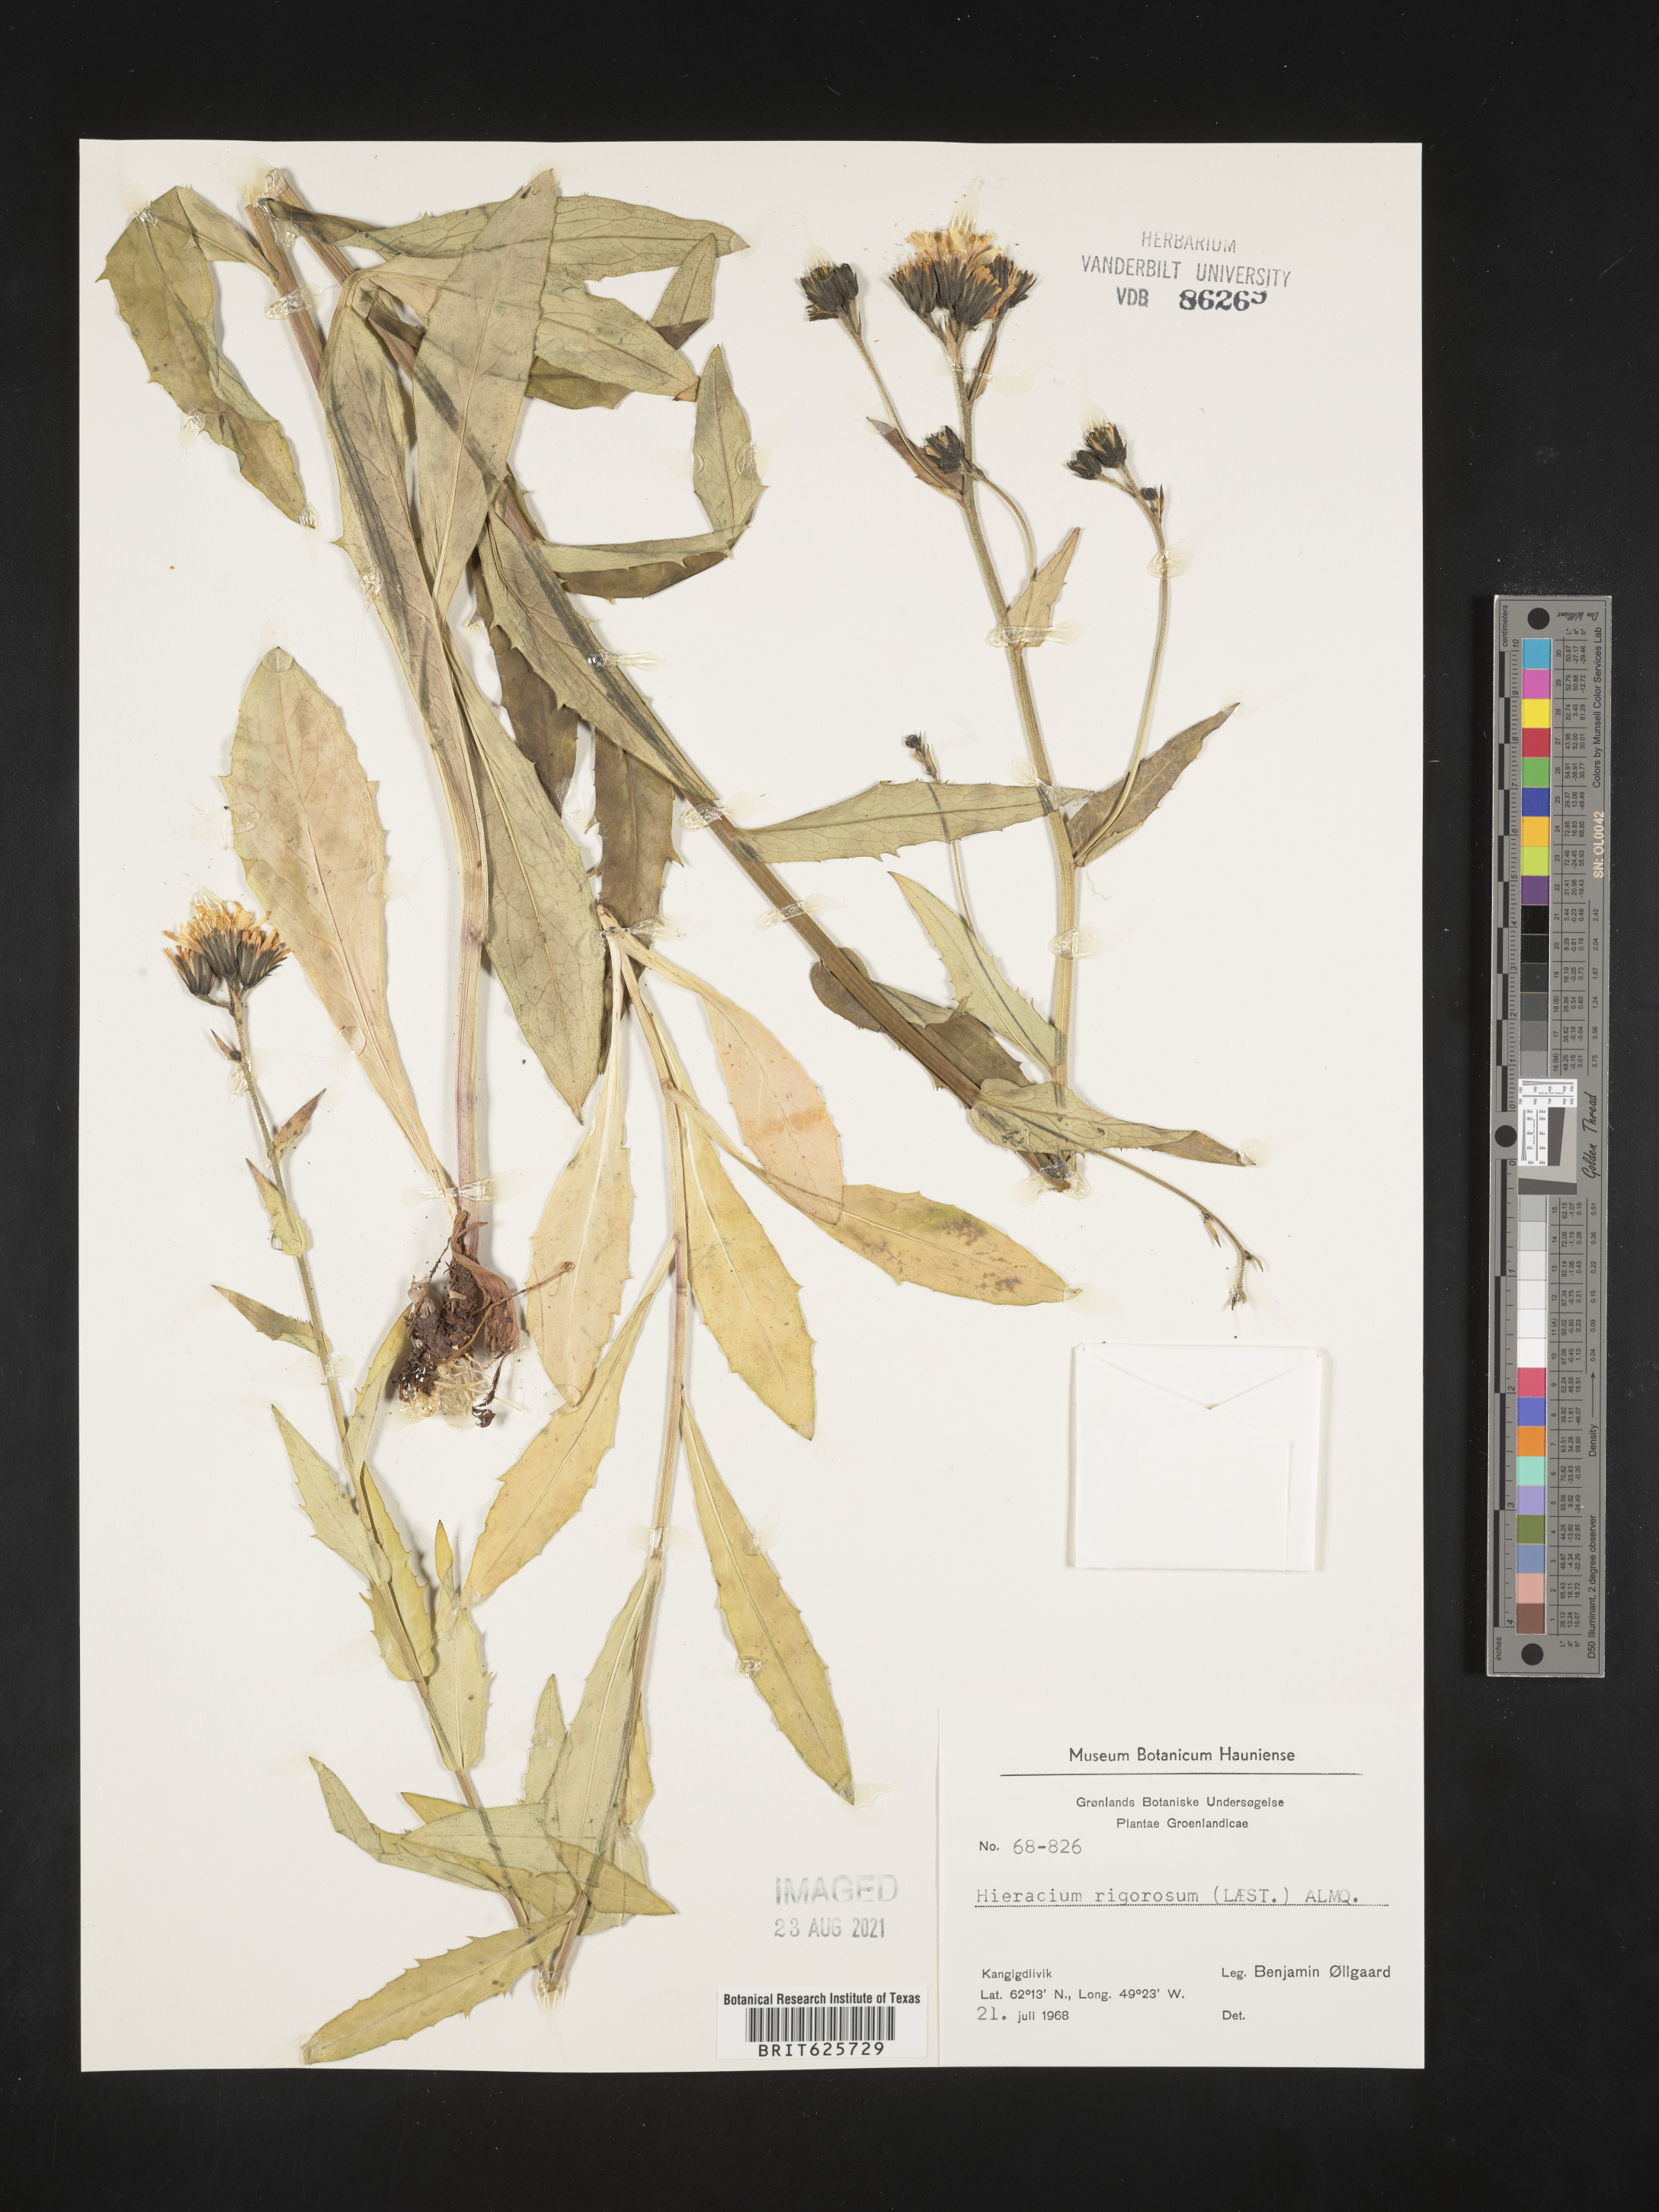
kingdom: Plantae
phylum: Tracheophyta
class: Magnoliopsida
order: Asterales
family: Asteraceae
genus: Hieracium
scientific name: Hieracium umbellatum
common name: Northern hawkweed
